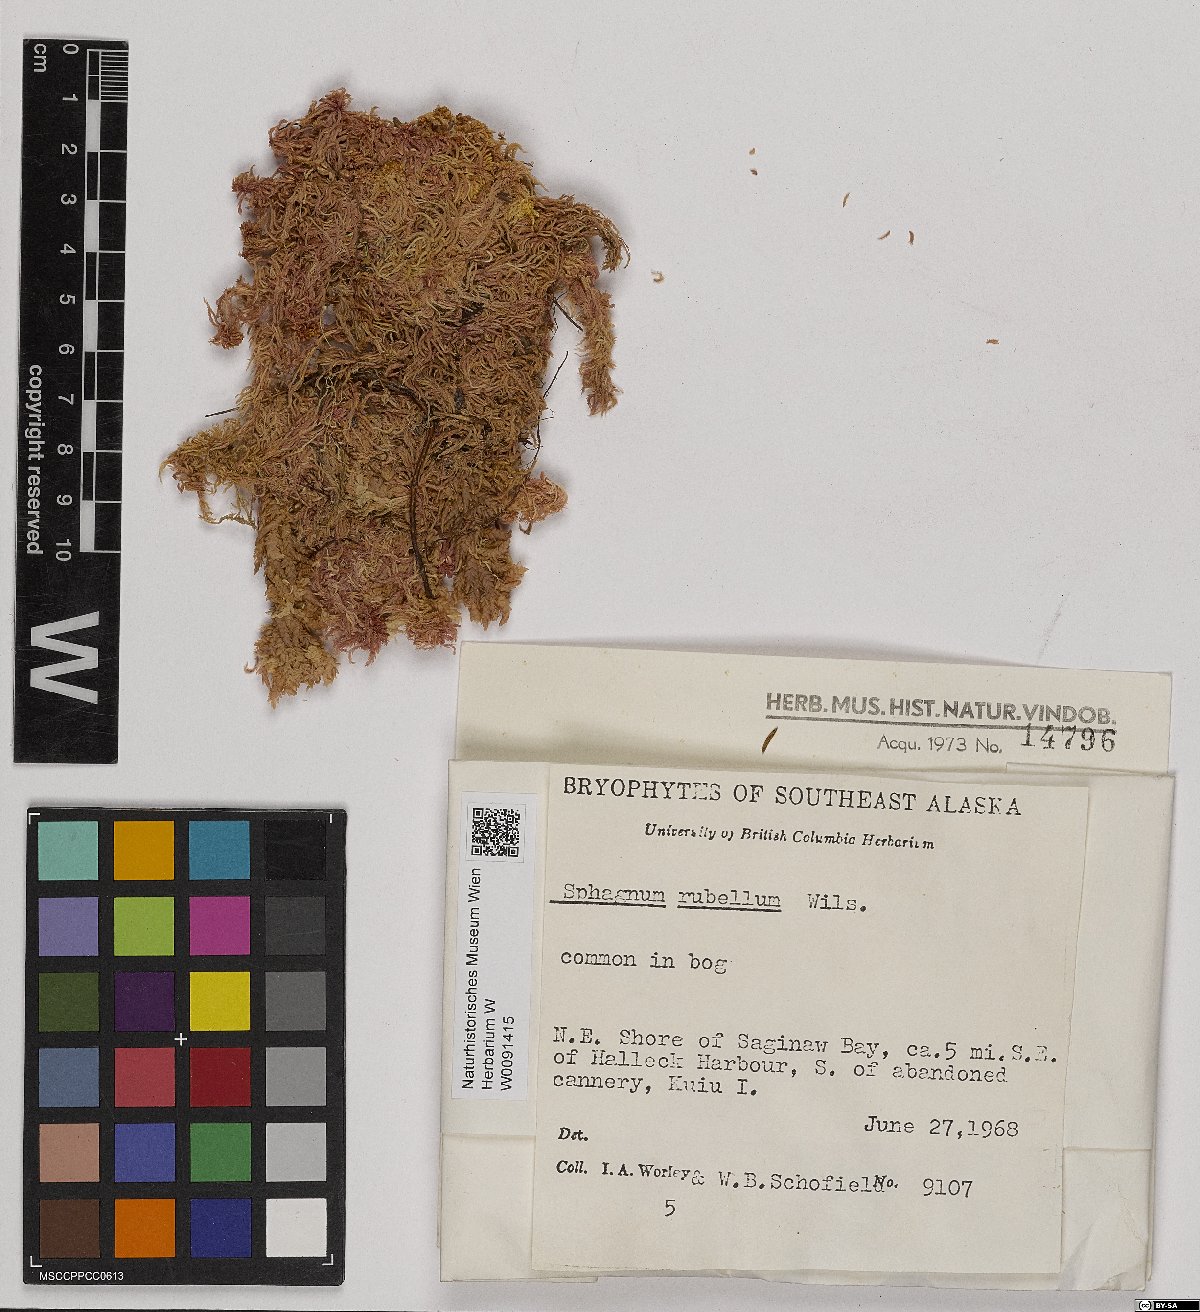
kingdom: Plantae
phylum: Bryophyta
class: Sphagnopsida
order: Sphagnales
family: Sphagnaceae
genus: Sphagnum
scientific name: Sphagnum rubellum
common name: Red peat moss
